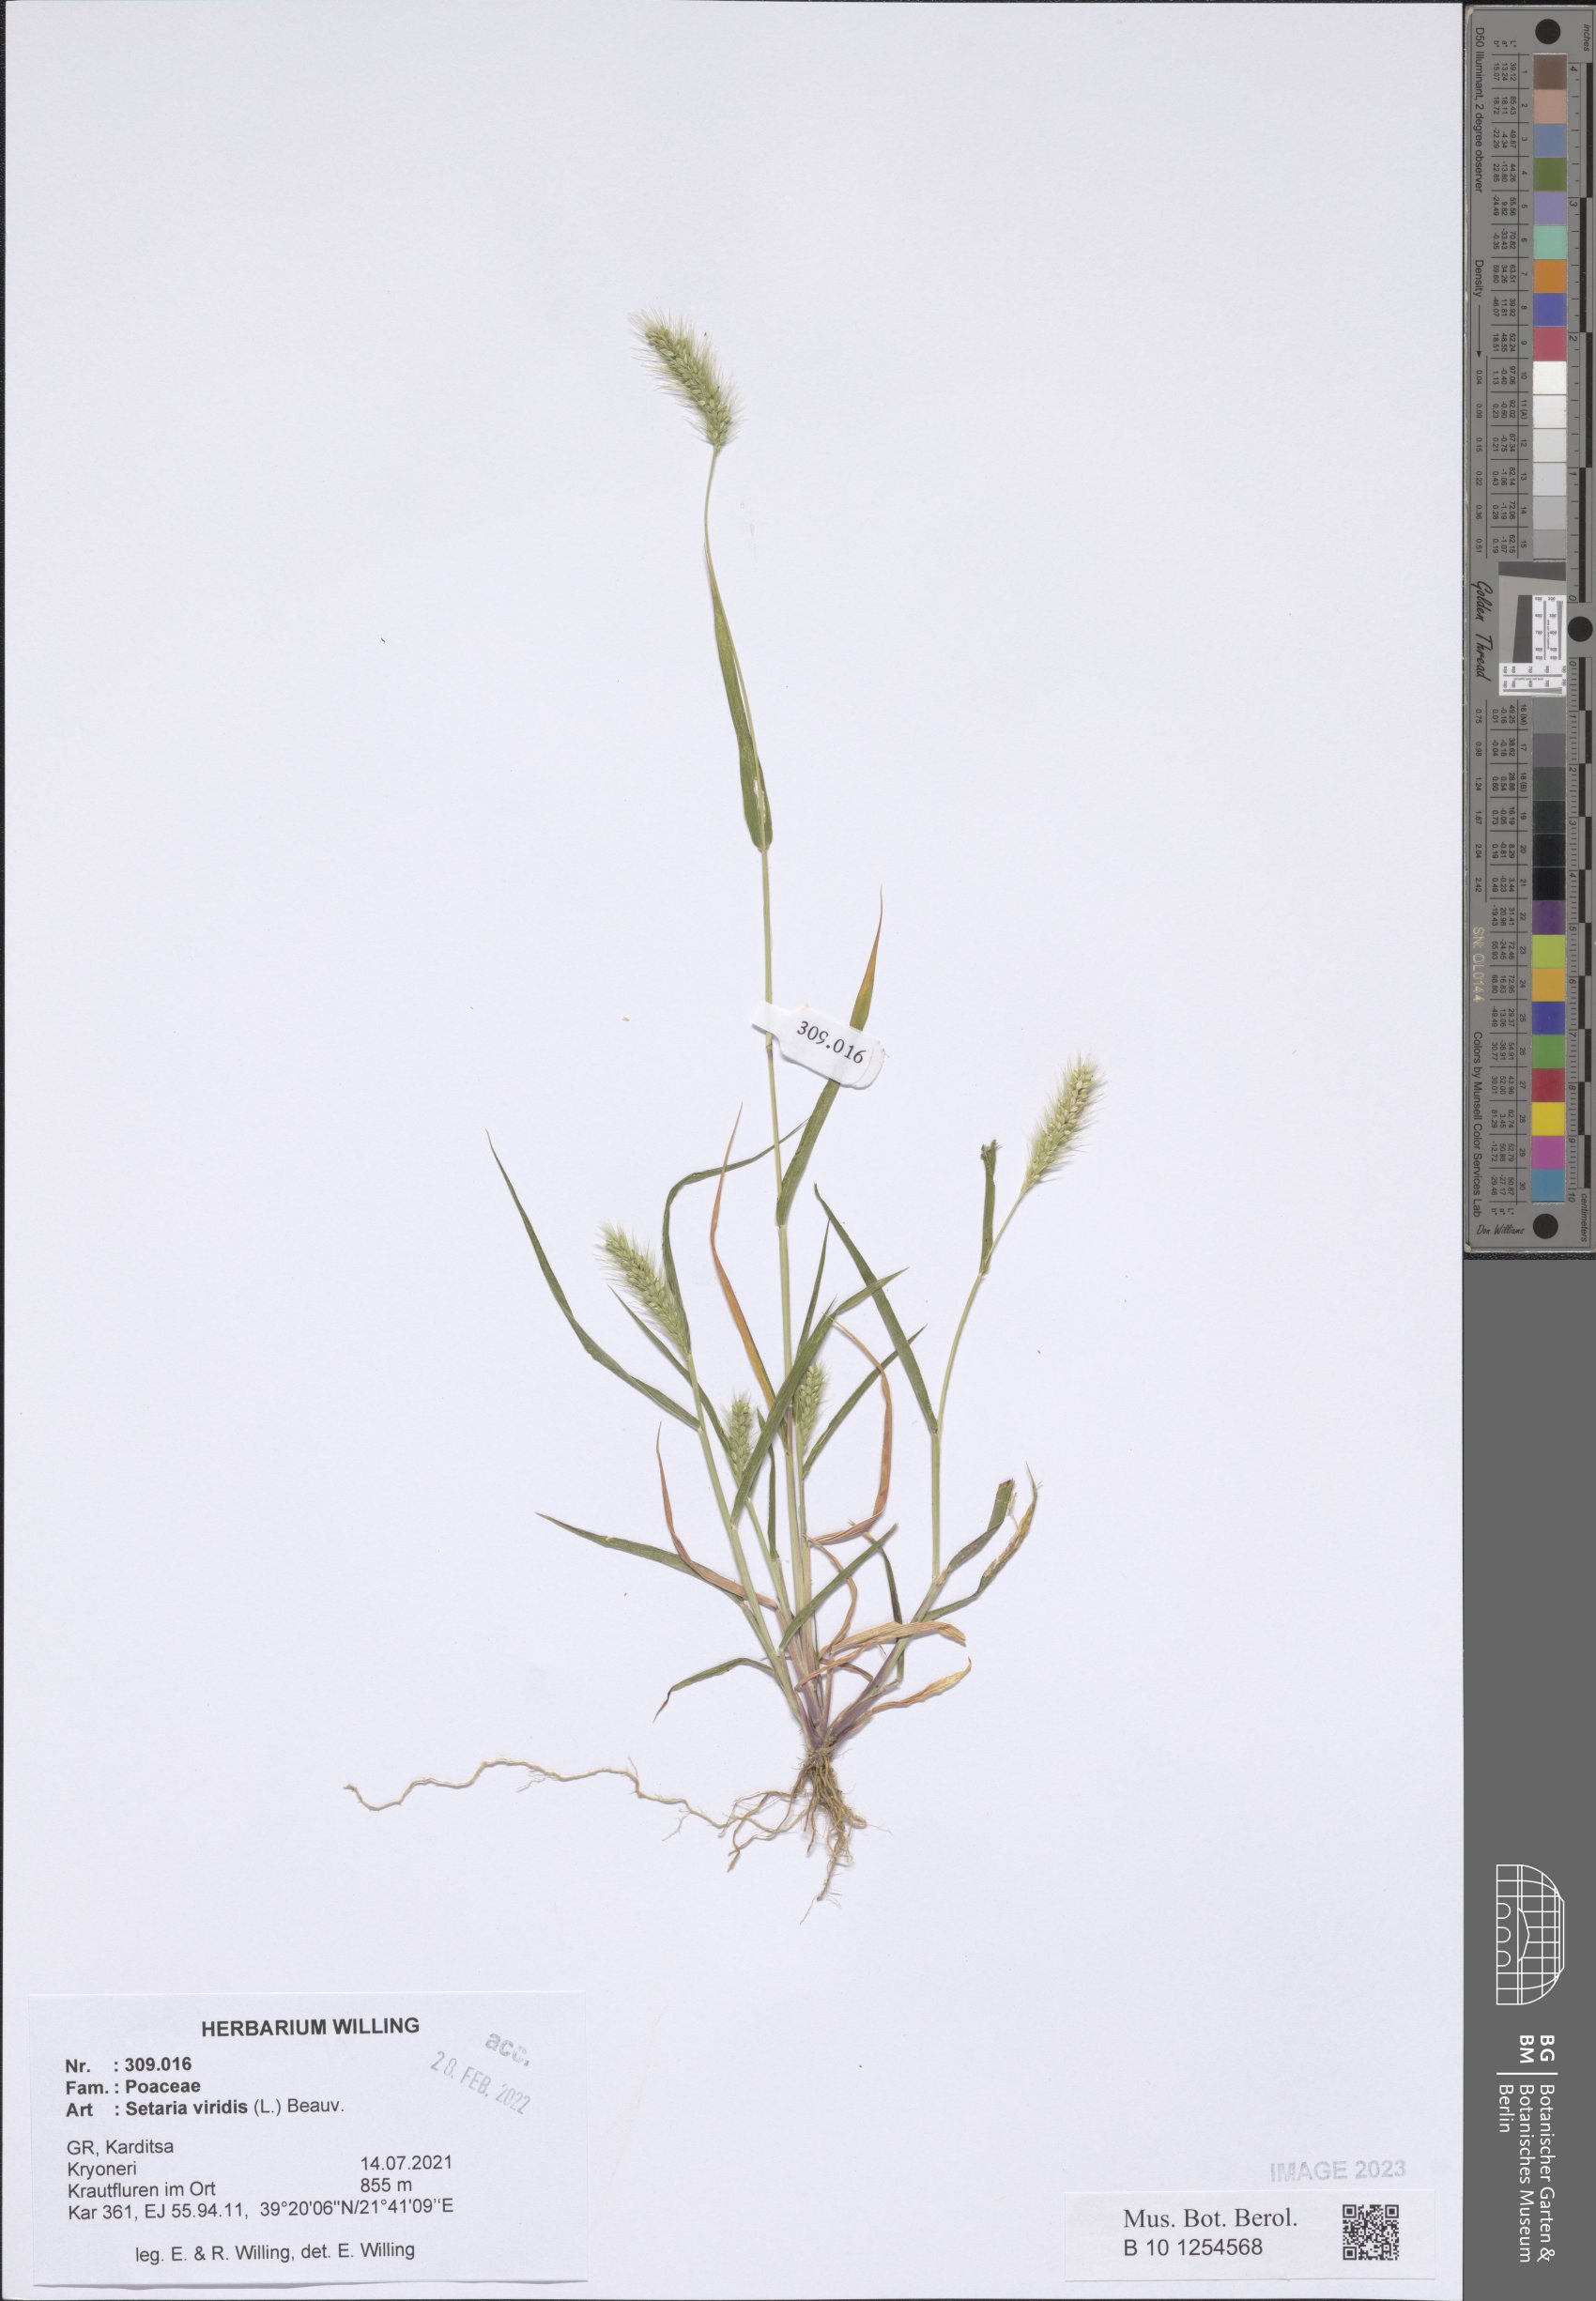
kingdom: Plantae
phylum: Tracheophyta
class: Liliopsida
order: Poales
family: Poaceae
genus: Setaria
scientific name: Setaria viridis
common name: Green bristlegrass
